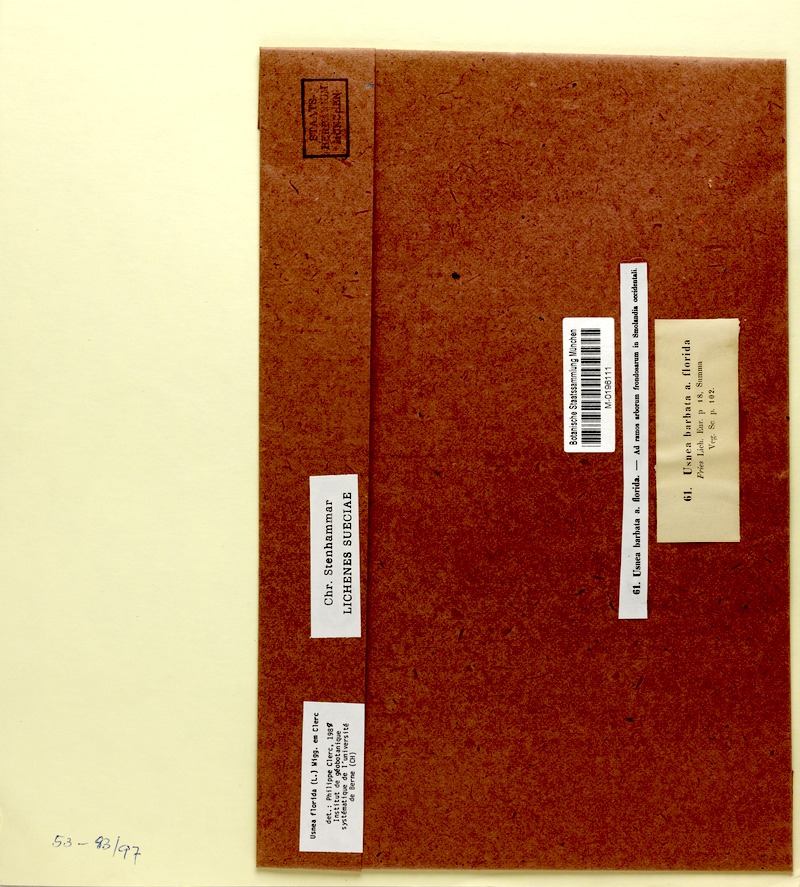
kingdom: Fungi
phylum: Ascomycota
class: Lecanoromycetes
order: Lecanorales
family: Parmeliaceae
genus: Usnea
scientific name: Usnea florida
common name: Witches' whiskers lichen
